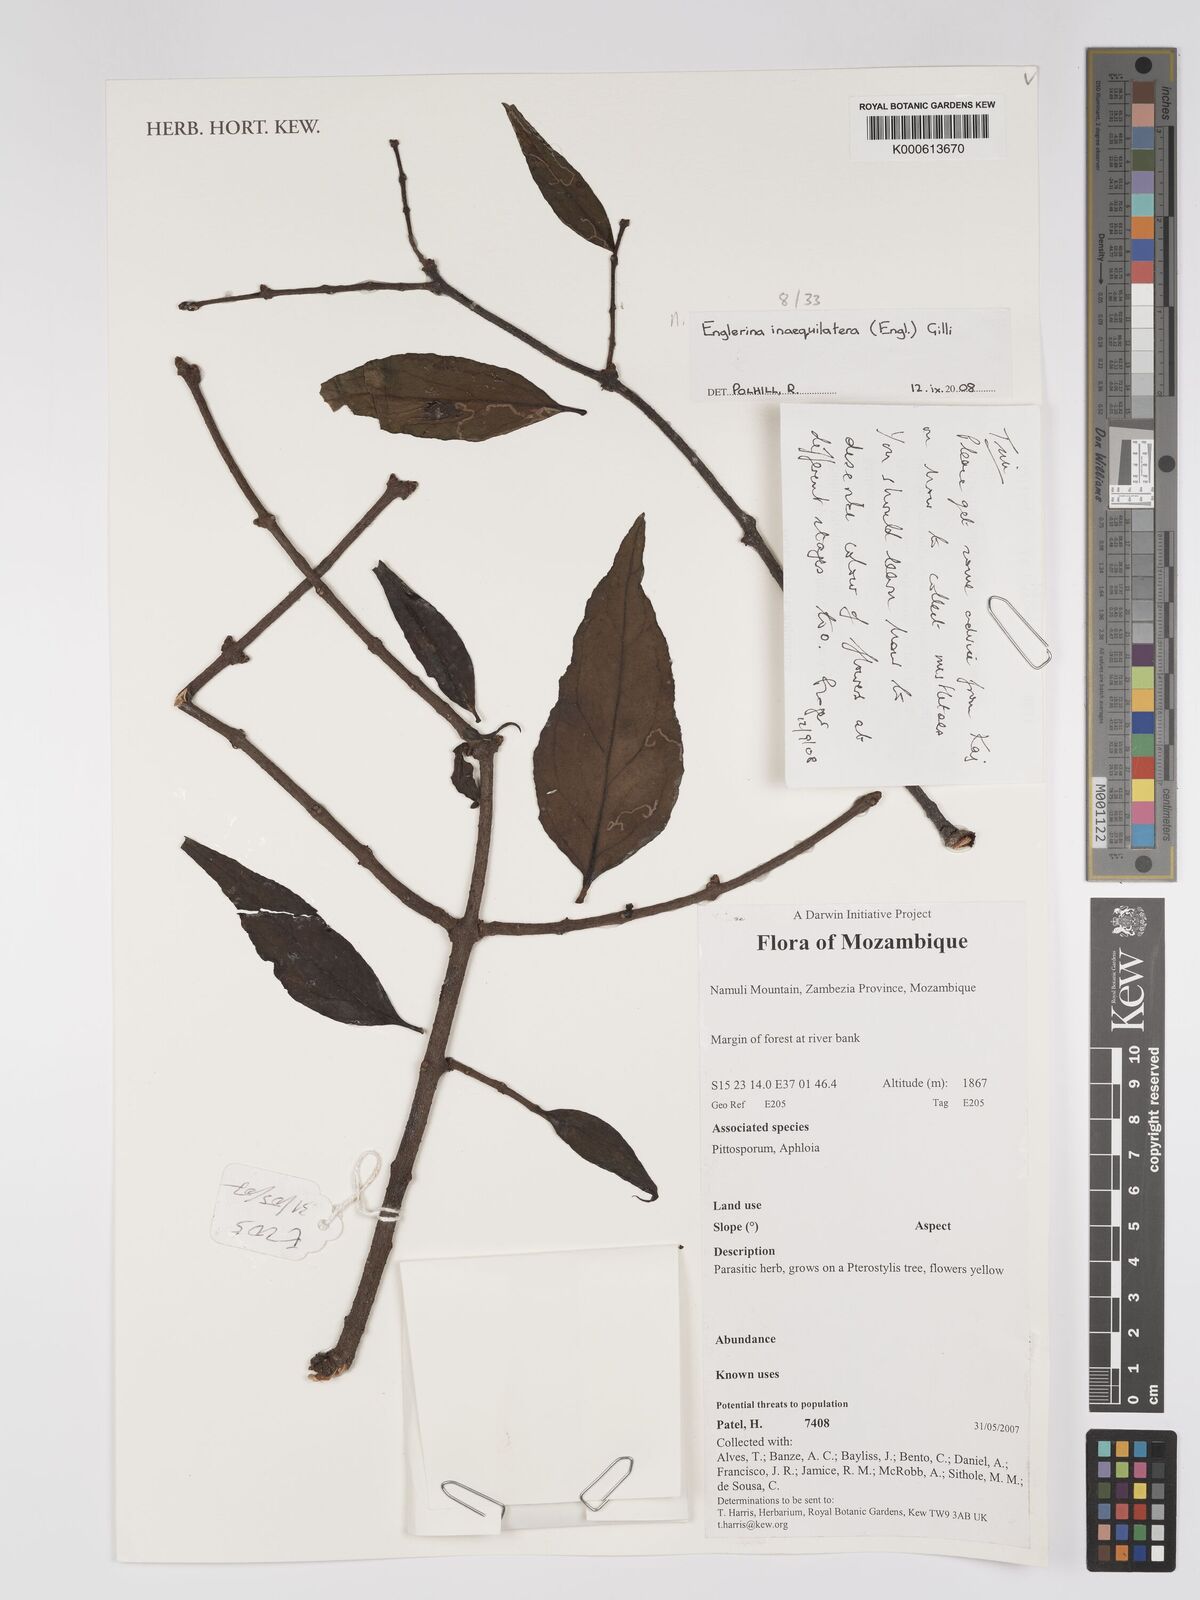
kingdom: Plantae
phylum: Tracheophyta
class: Magnoliopsida
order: Santalales
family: Loranthaceae
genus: Englerina
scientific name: Englerina inaequilatera
